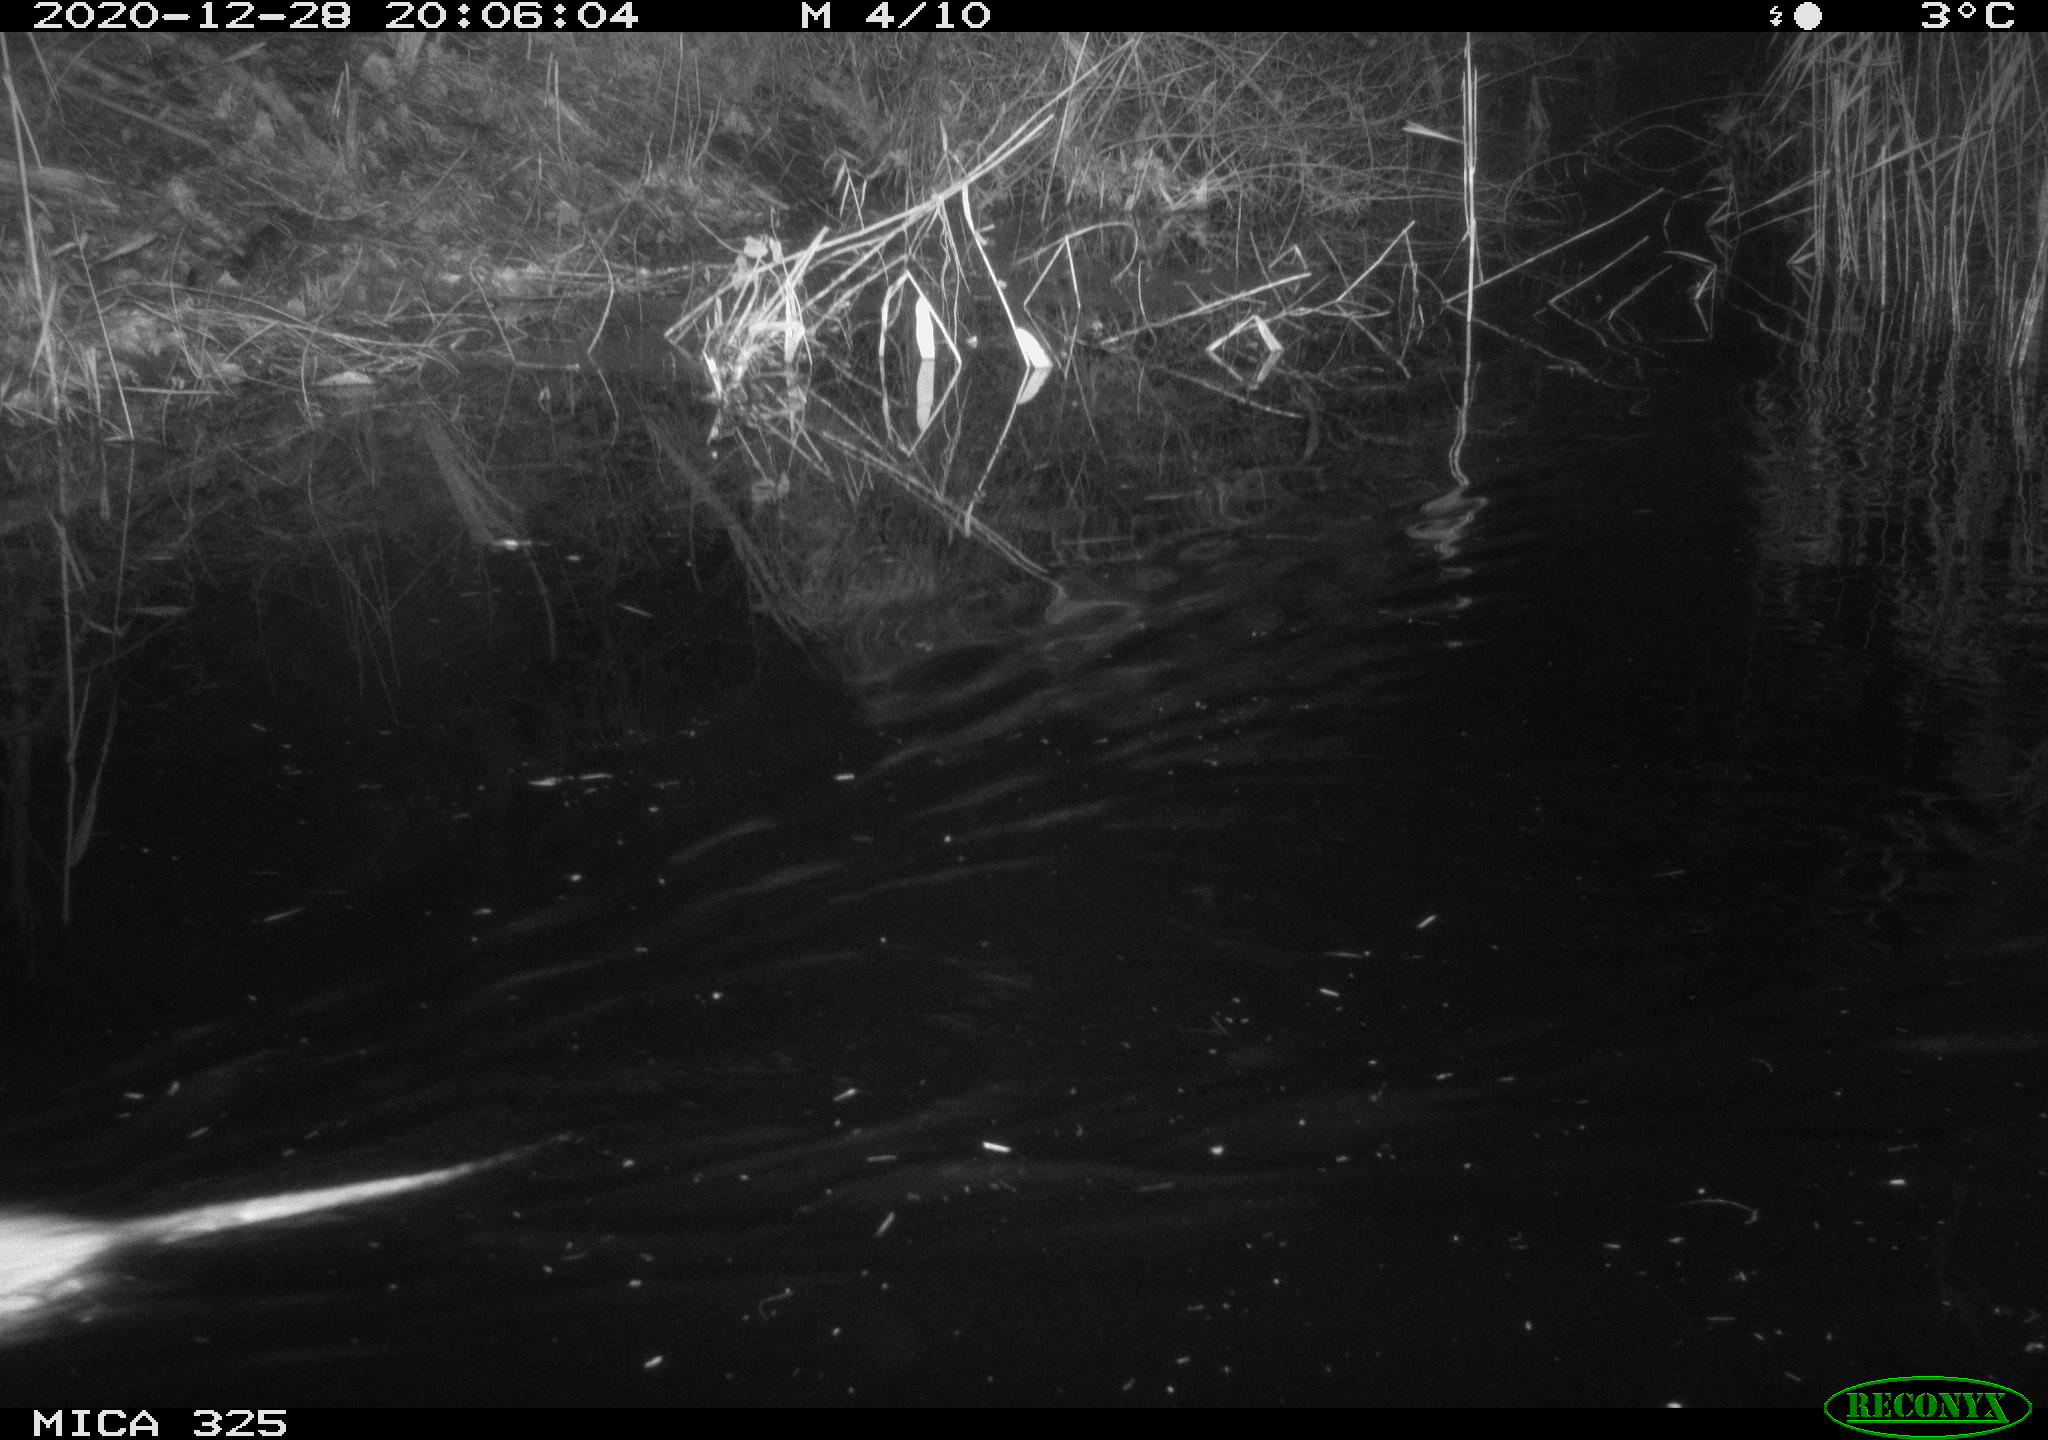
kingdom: Animalia
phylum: Chordata
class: Mammalia
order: Rodentia
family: Cricetidae
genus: Ondatra
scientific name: Ondatra zibethicus
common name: Muskrat
